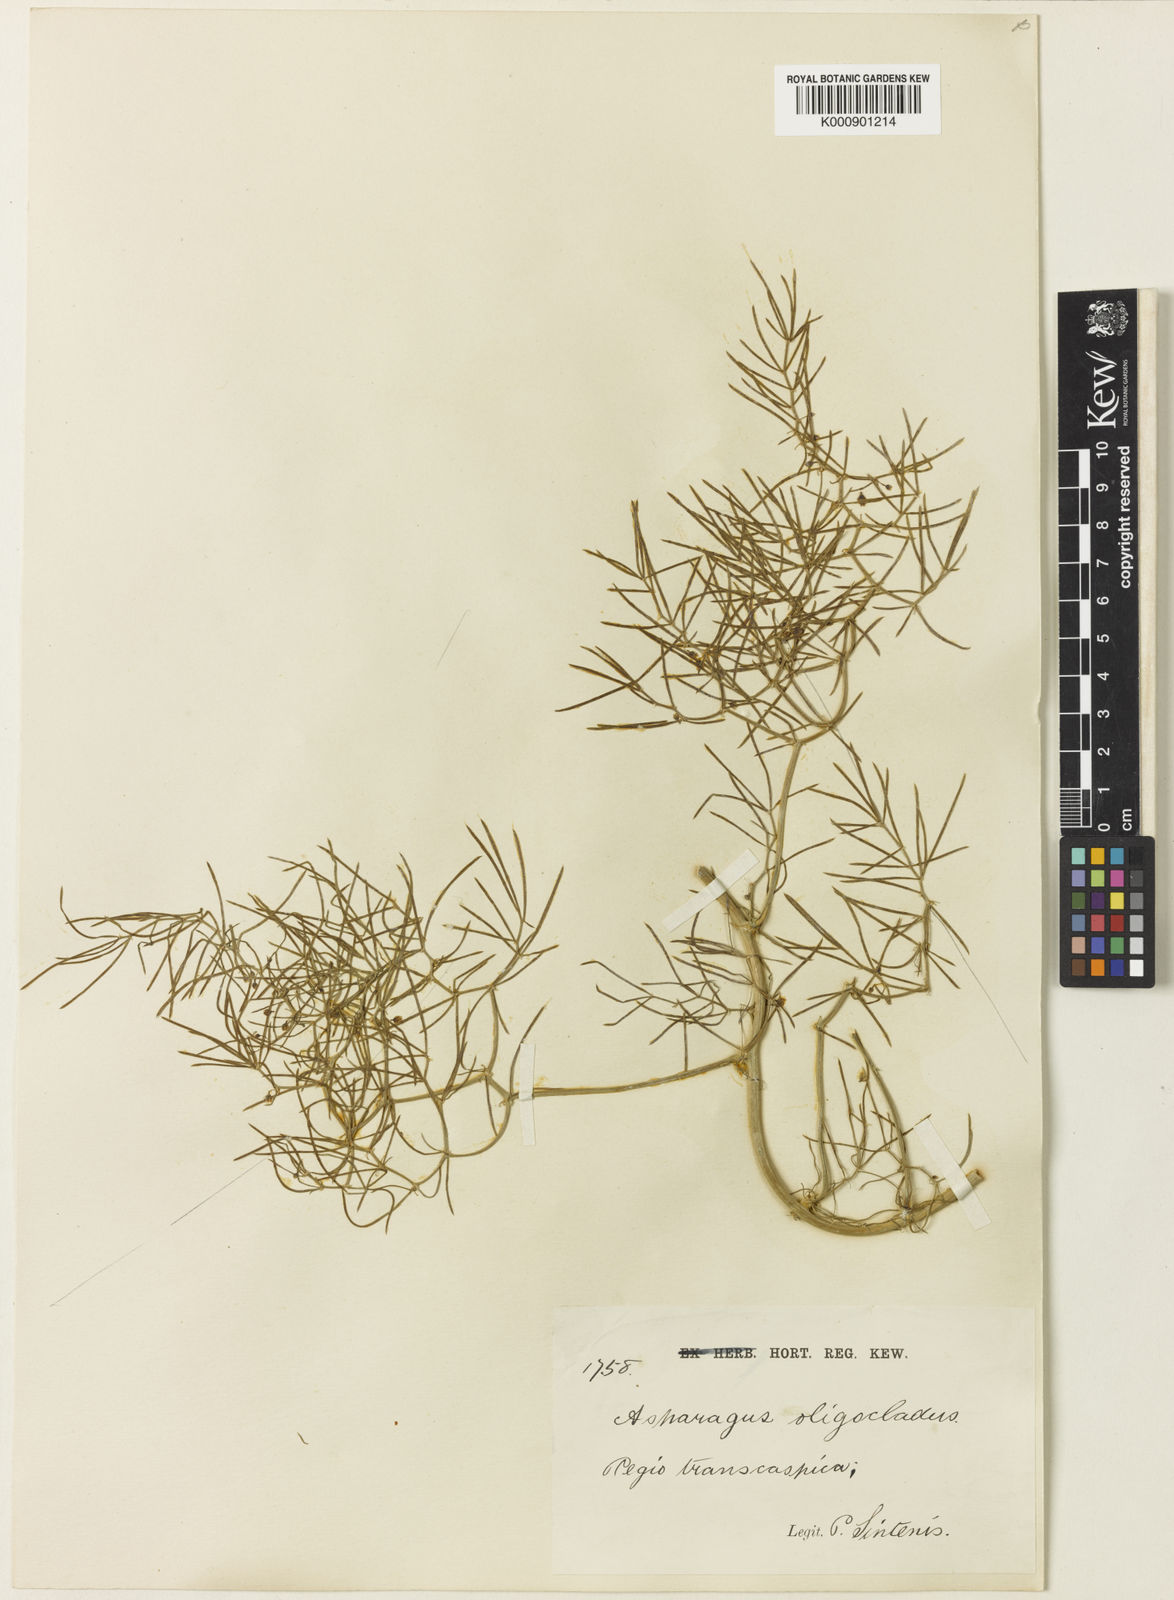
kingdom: Plantae
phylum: Tracheophyta
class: Liliopsida
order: Asparagales
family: Asparagaceae
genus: Asparagus
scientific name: Asparagus
